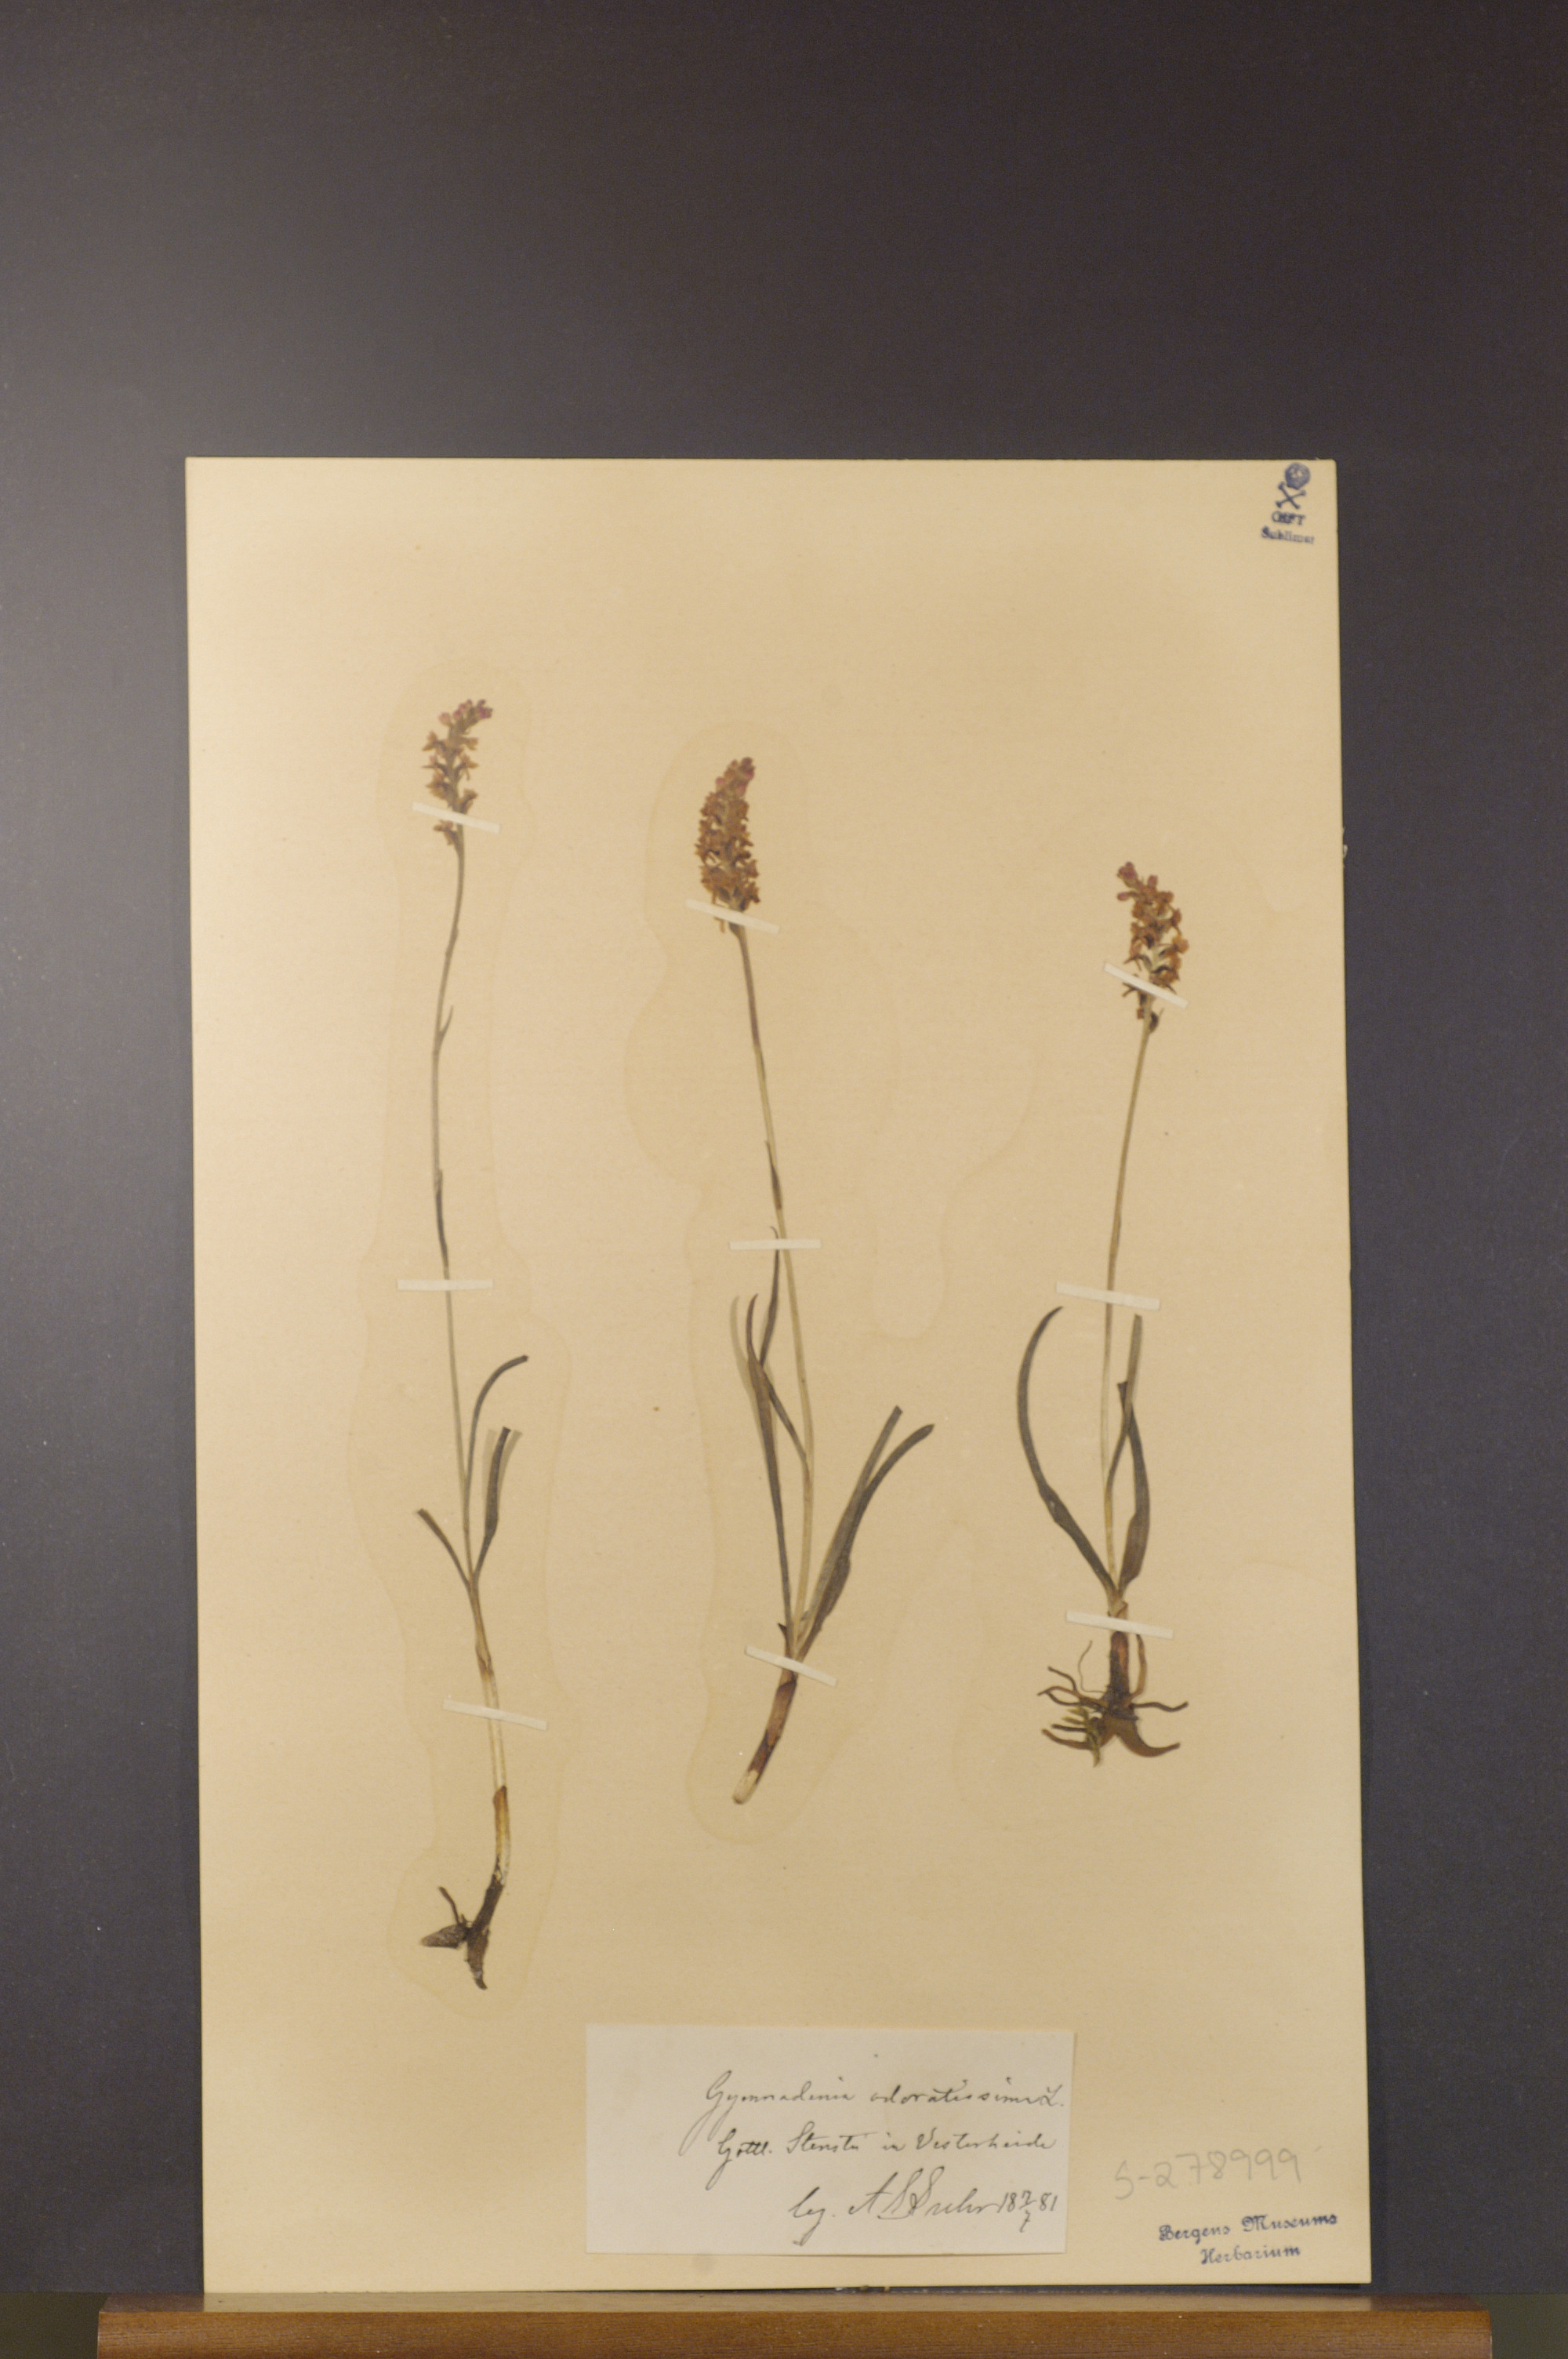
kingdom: Plantae
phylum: Tracheophyta
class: Liliopsida
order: Asparagales
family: Orchidaceae
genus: Gymnadenia
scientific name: Gymnadenia odoratissima
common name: Scented gymnadenia
